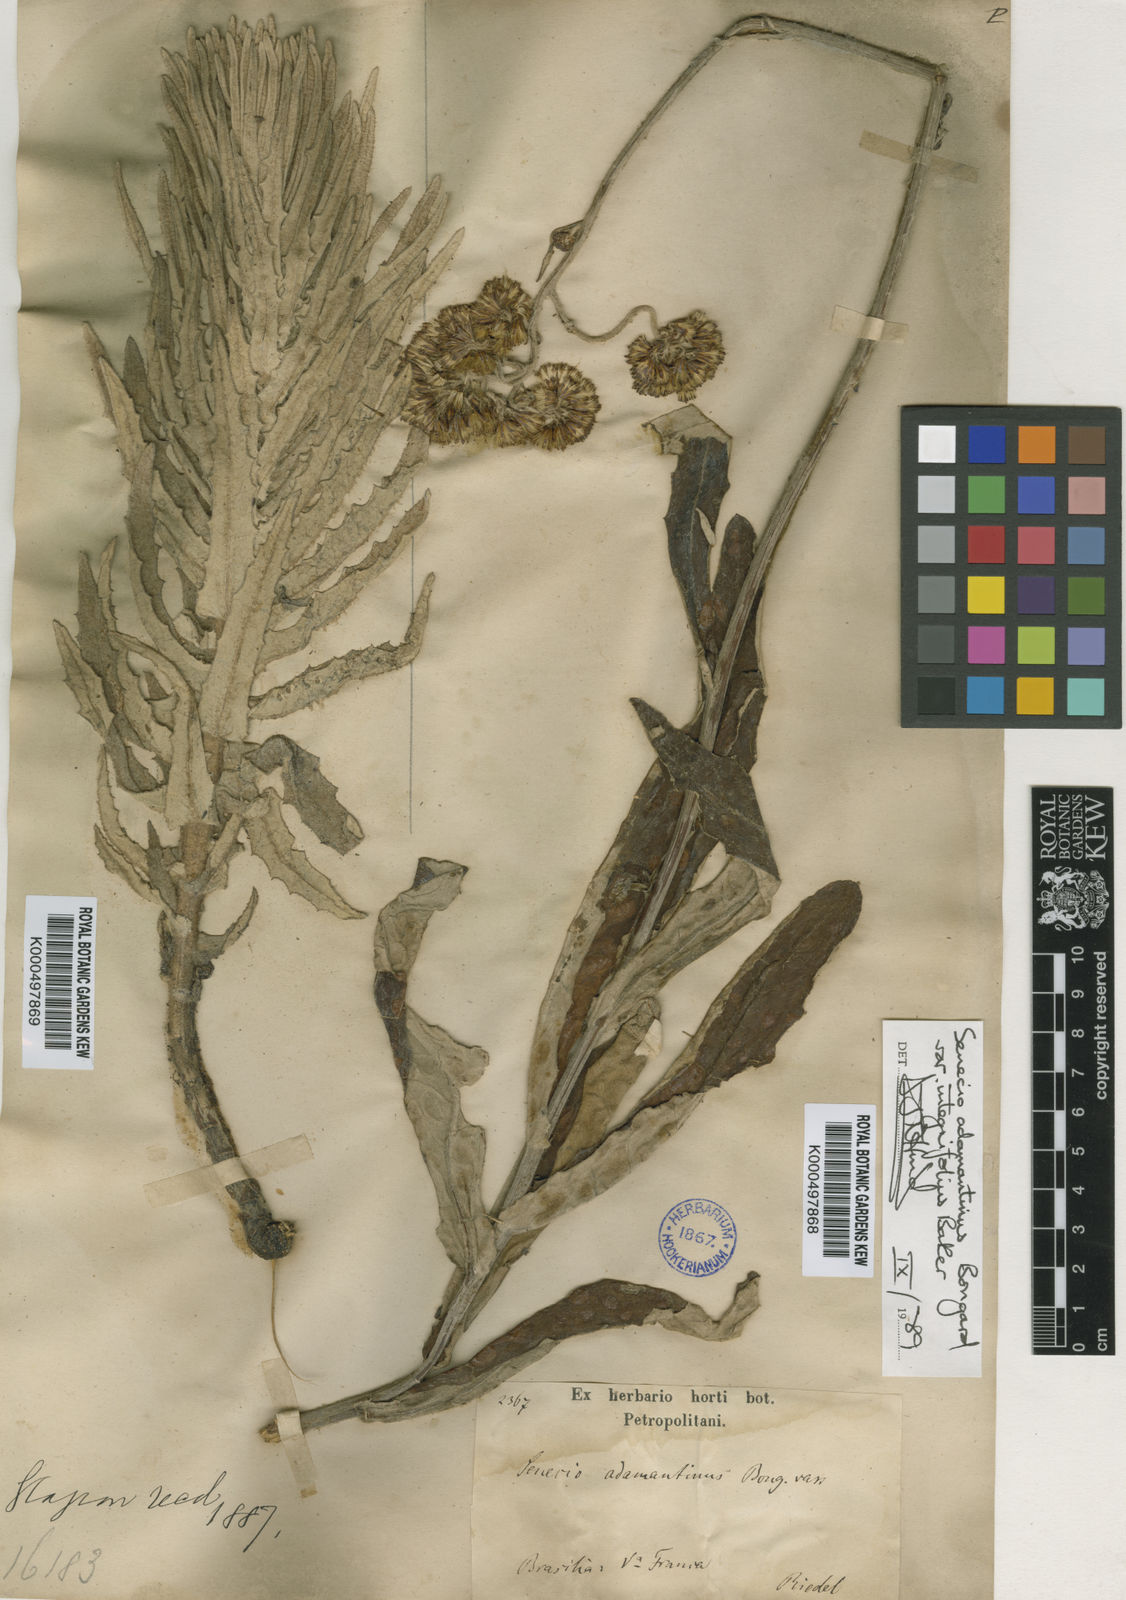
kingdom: Plantae
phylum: Tracheophyta
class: Magnoliopsida
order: Asterales
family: Asteraceae
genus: Senecio
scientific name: Senecio
